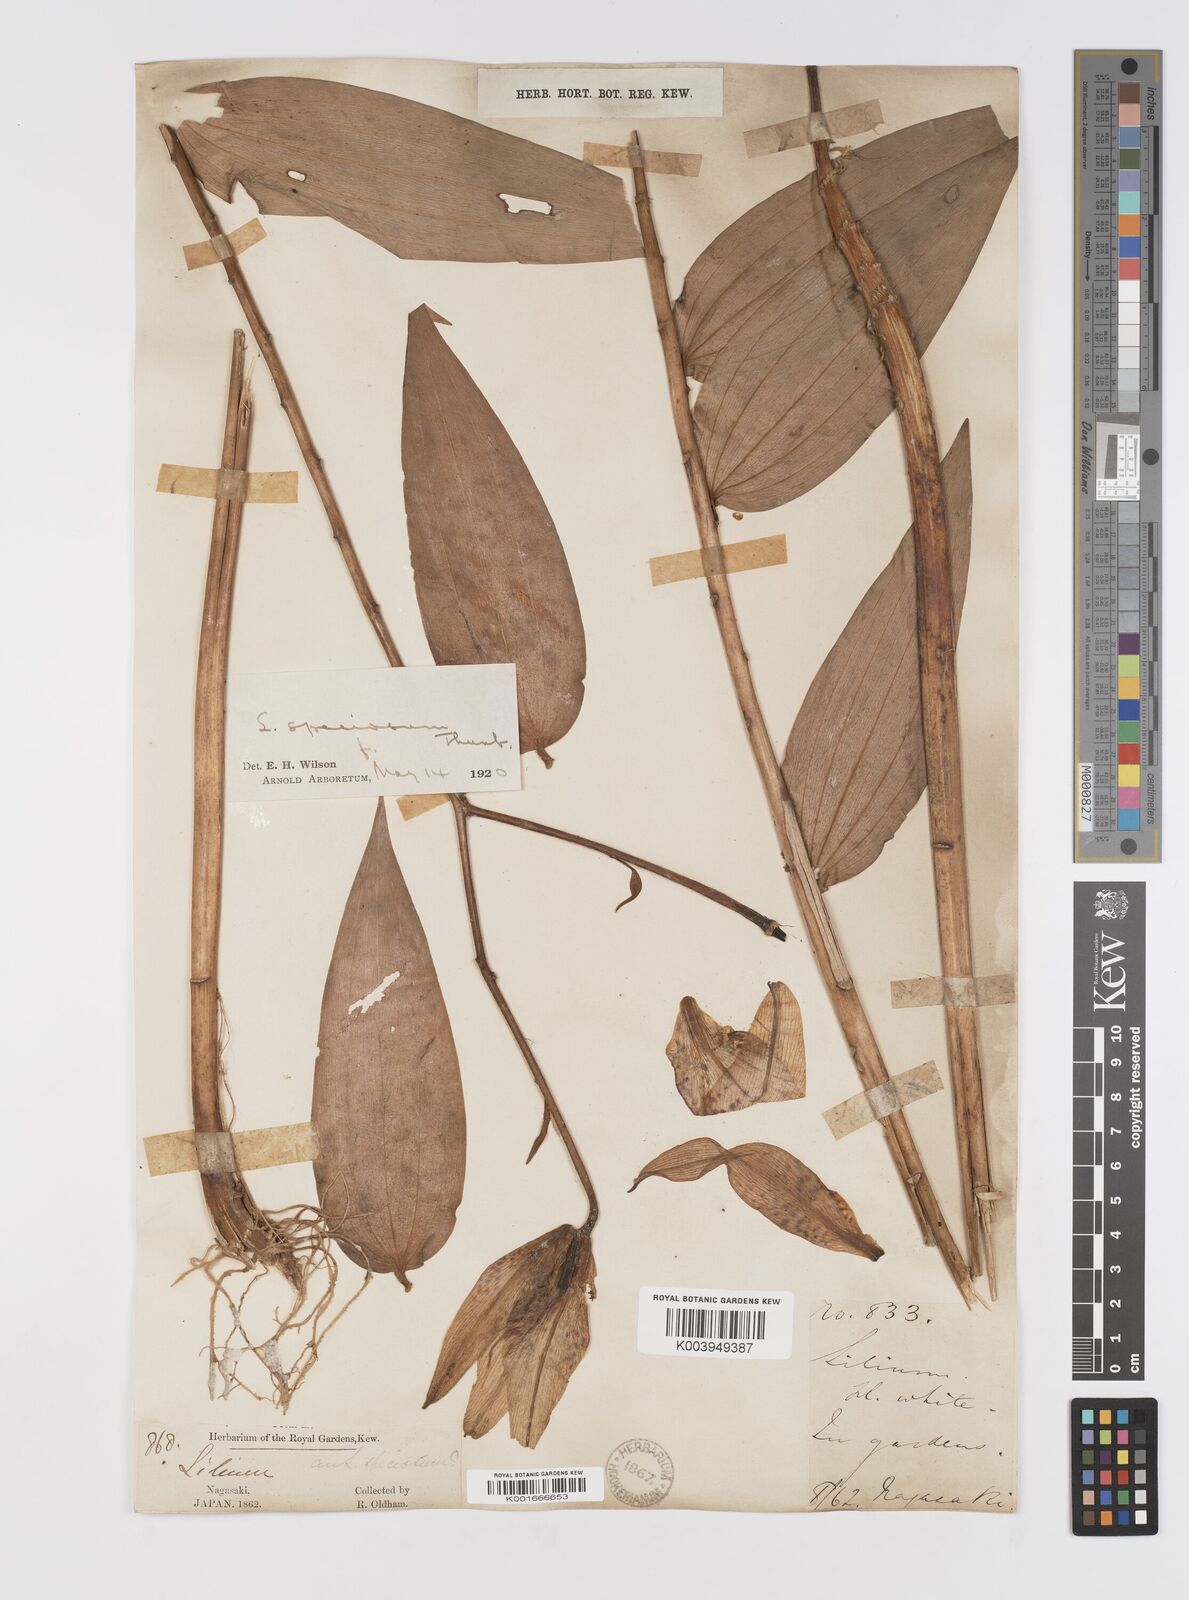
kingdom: Plantae
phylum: Tracheophyta
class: Liliopsida
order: Liliales
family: Liliaceae
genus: Lilium
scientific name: Lilium speciosum
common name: Japanese lily
